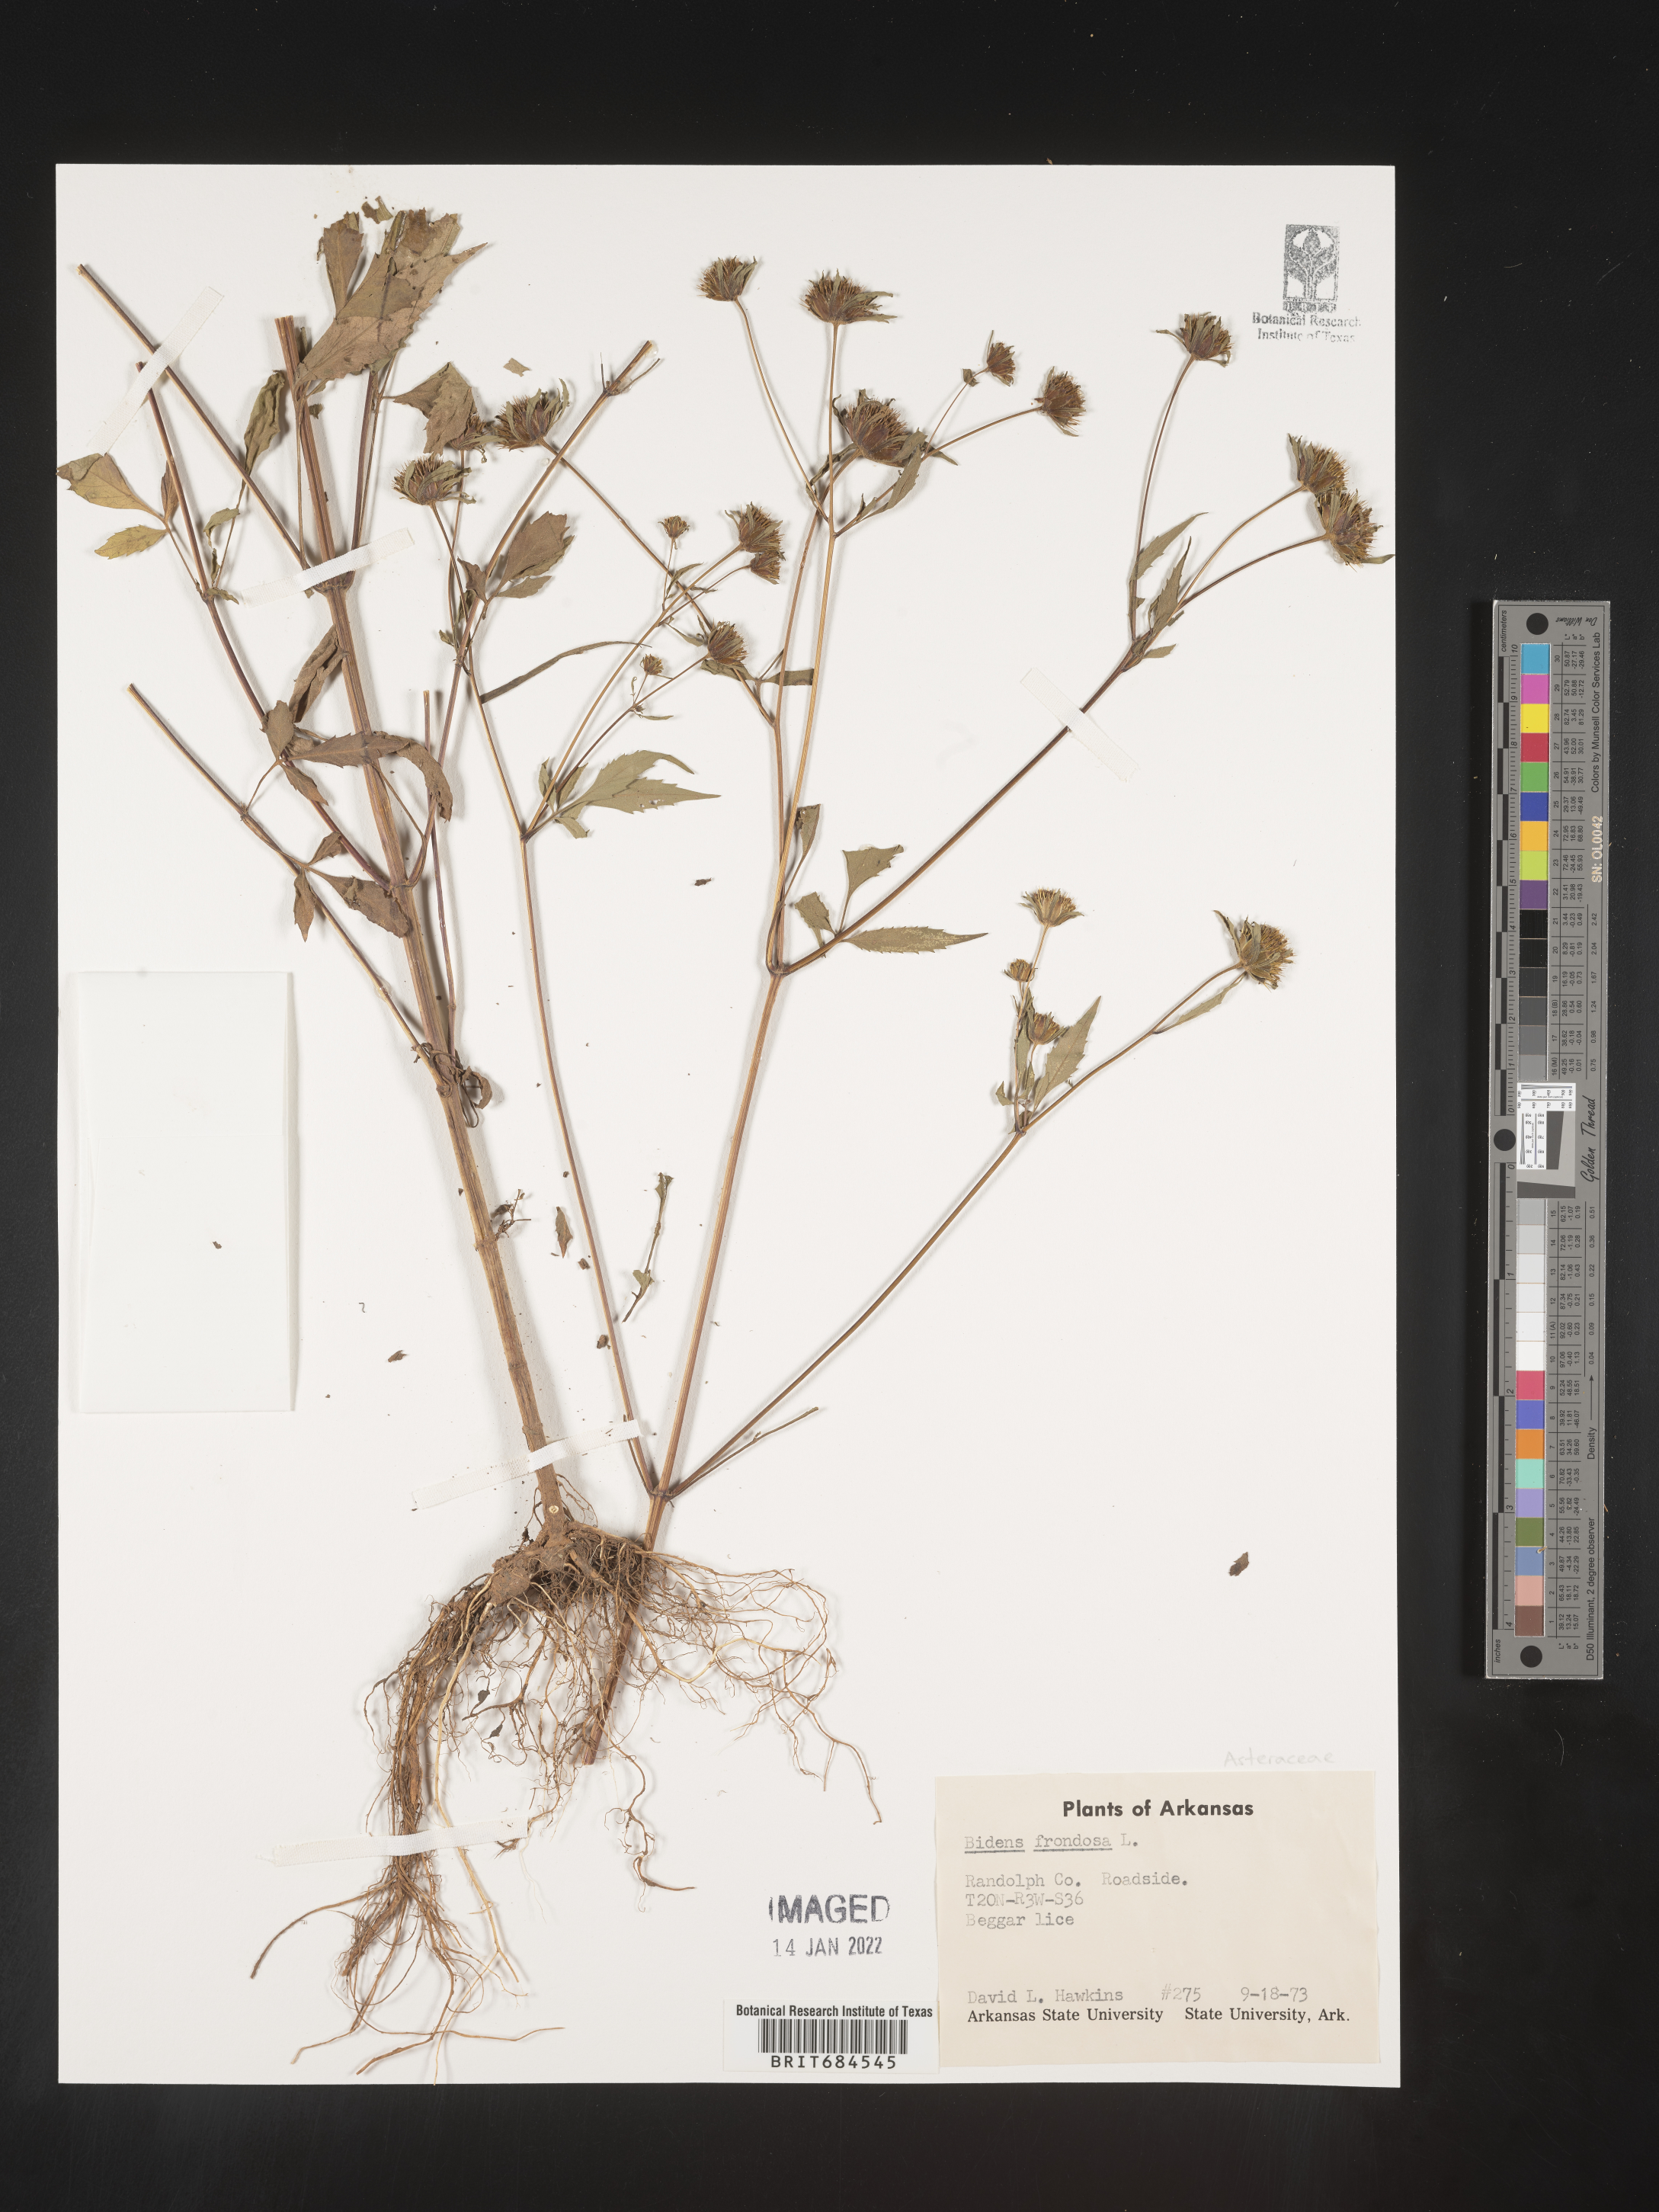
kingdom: Plantae
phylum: Tracheophyta
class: Magnoliopsida
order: Asterales
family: Asteraceae
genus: Bidens
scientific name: Bidens frondosa
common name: Beggarticks
